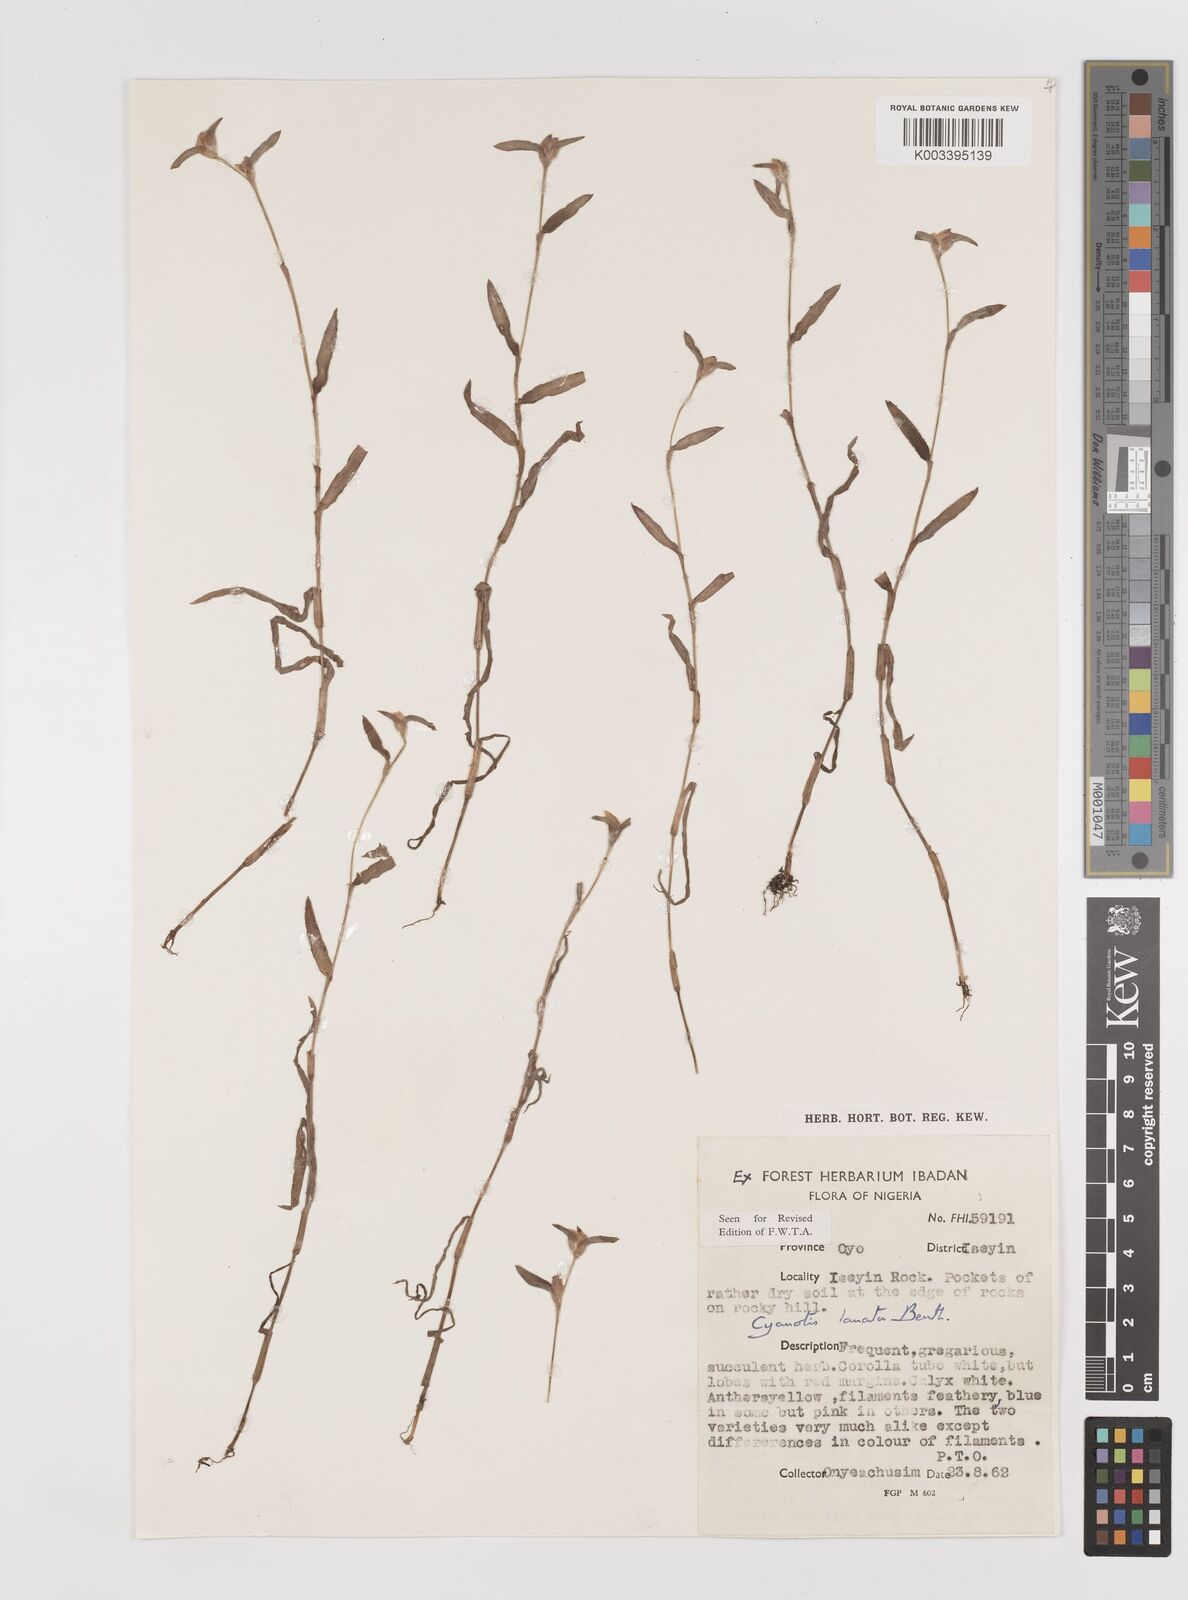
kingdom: Plantae
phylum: Tracheophyta
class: Liliopsida
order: Commelinales
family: Commelinaceae
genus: Cyanotis
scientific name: Cyanotis lanata
